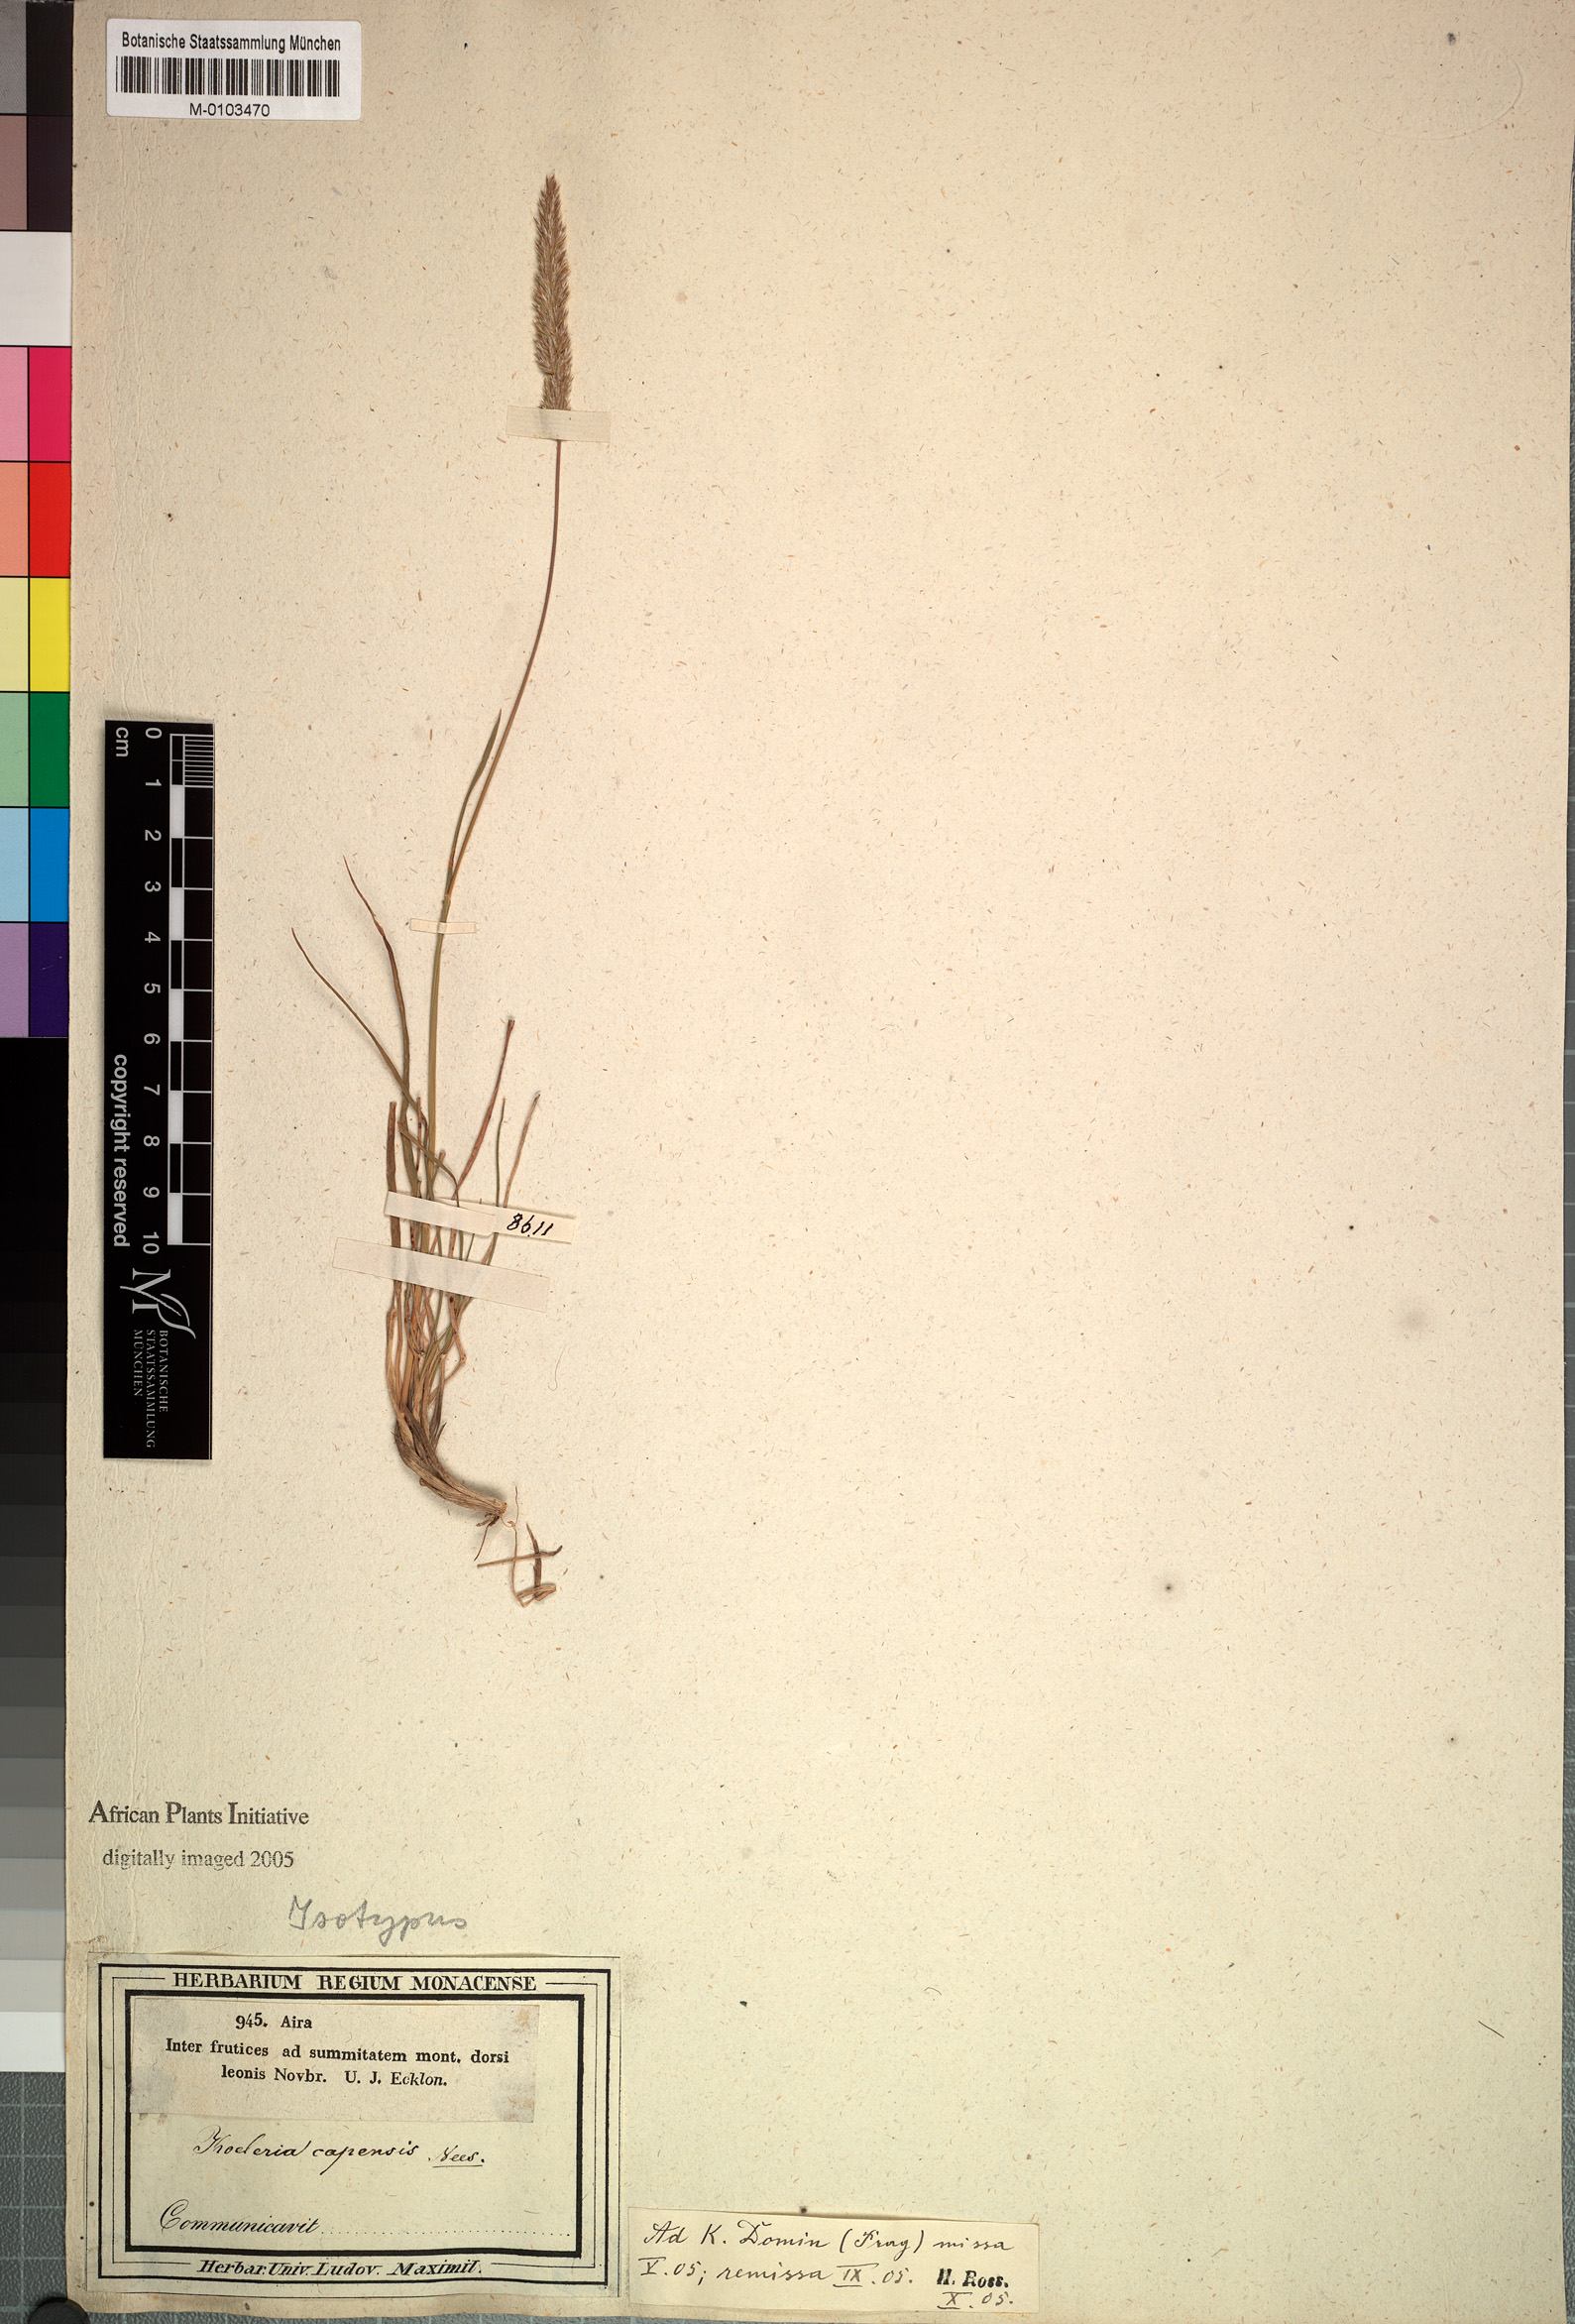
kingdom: Plantae
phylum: Tracheophyta
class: Liliopsida
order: Poales
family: Poaceae
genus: Koeleria
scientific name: Koeleria capensis
